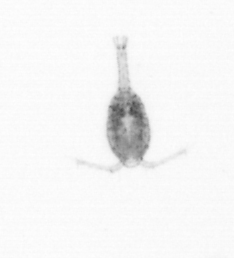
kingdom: Animalia
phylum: Arthropoda
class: Copepoda
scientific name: Copepoda
